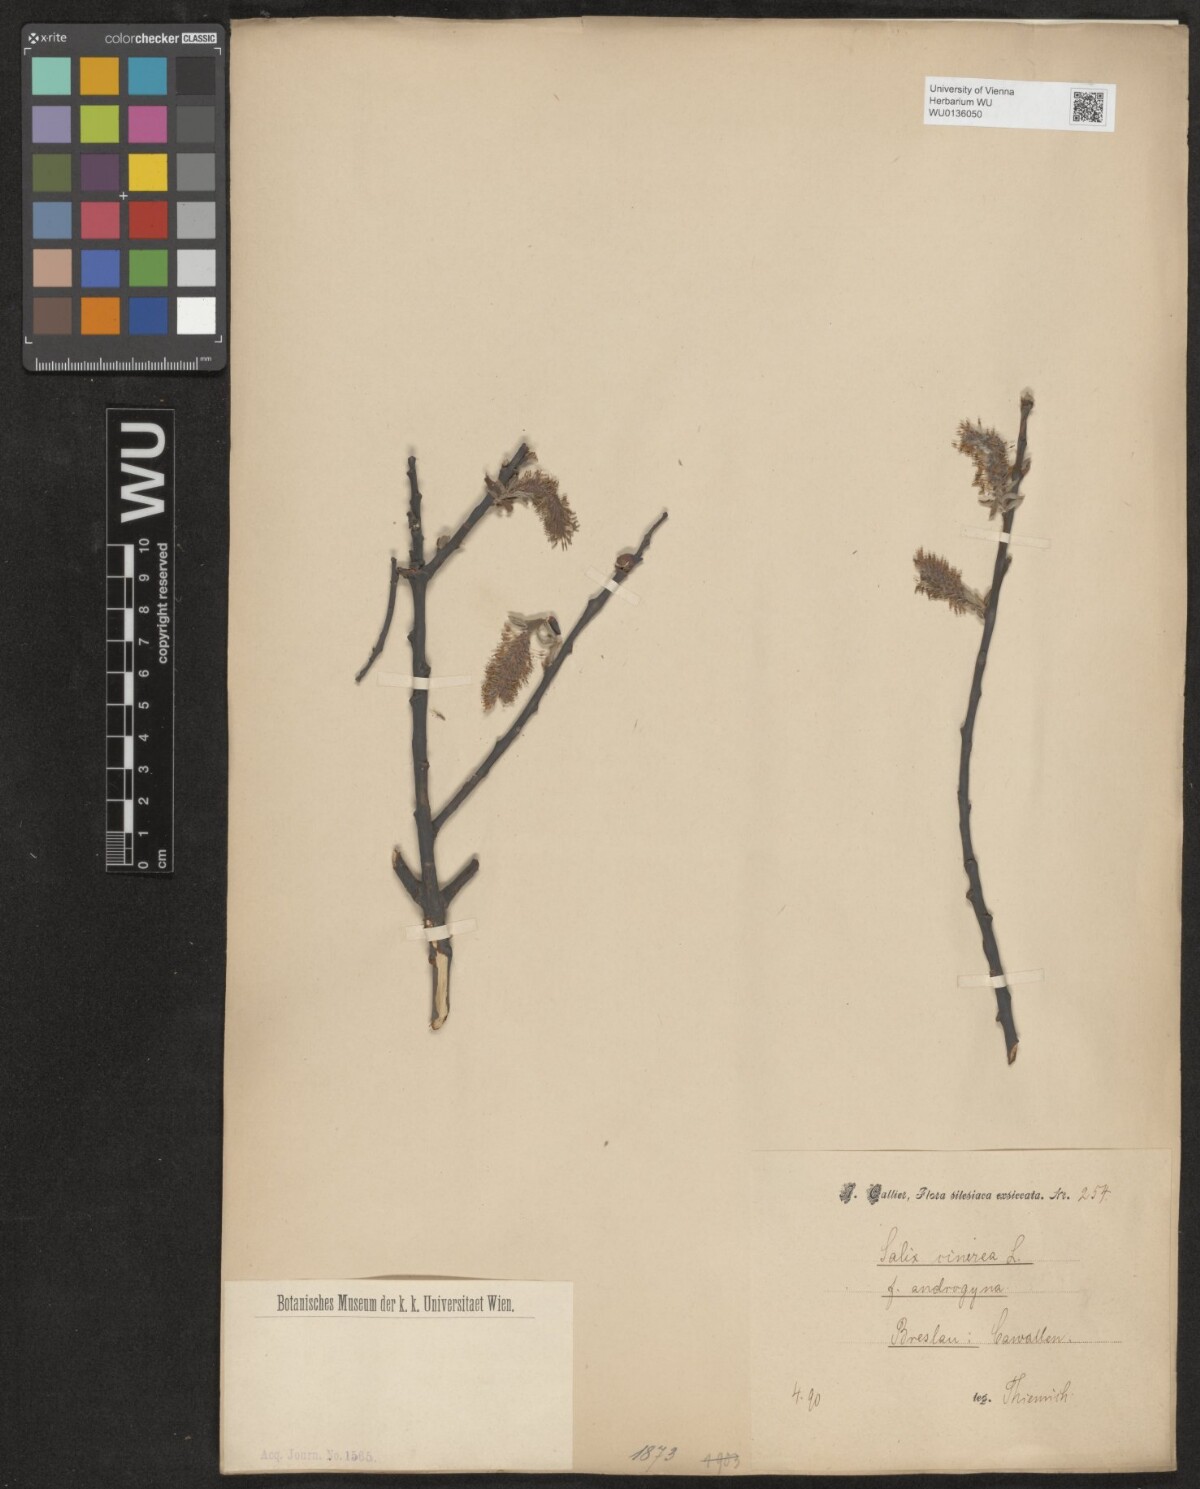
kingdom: Plantae
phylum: Tracheophyta
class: Magnoliopsida
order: Malpighiales
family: Salicaceae
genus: Salix
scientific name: Salix cinerea
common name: Common sallow
